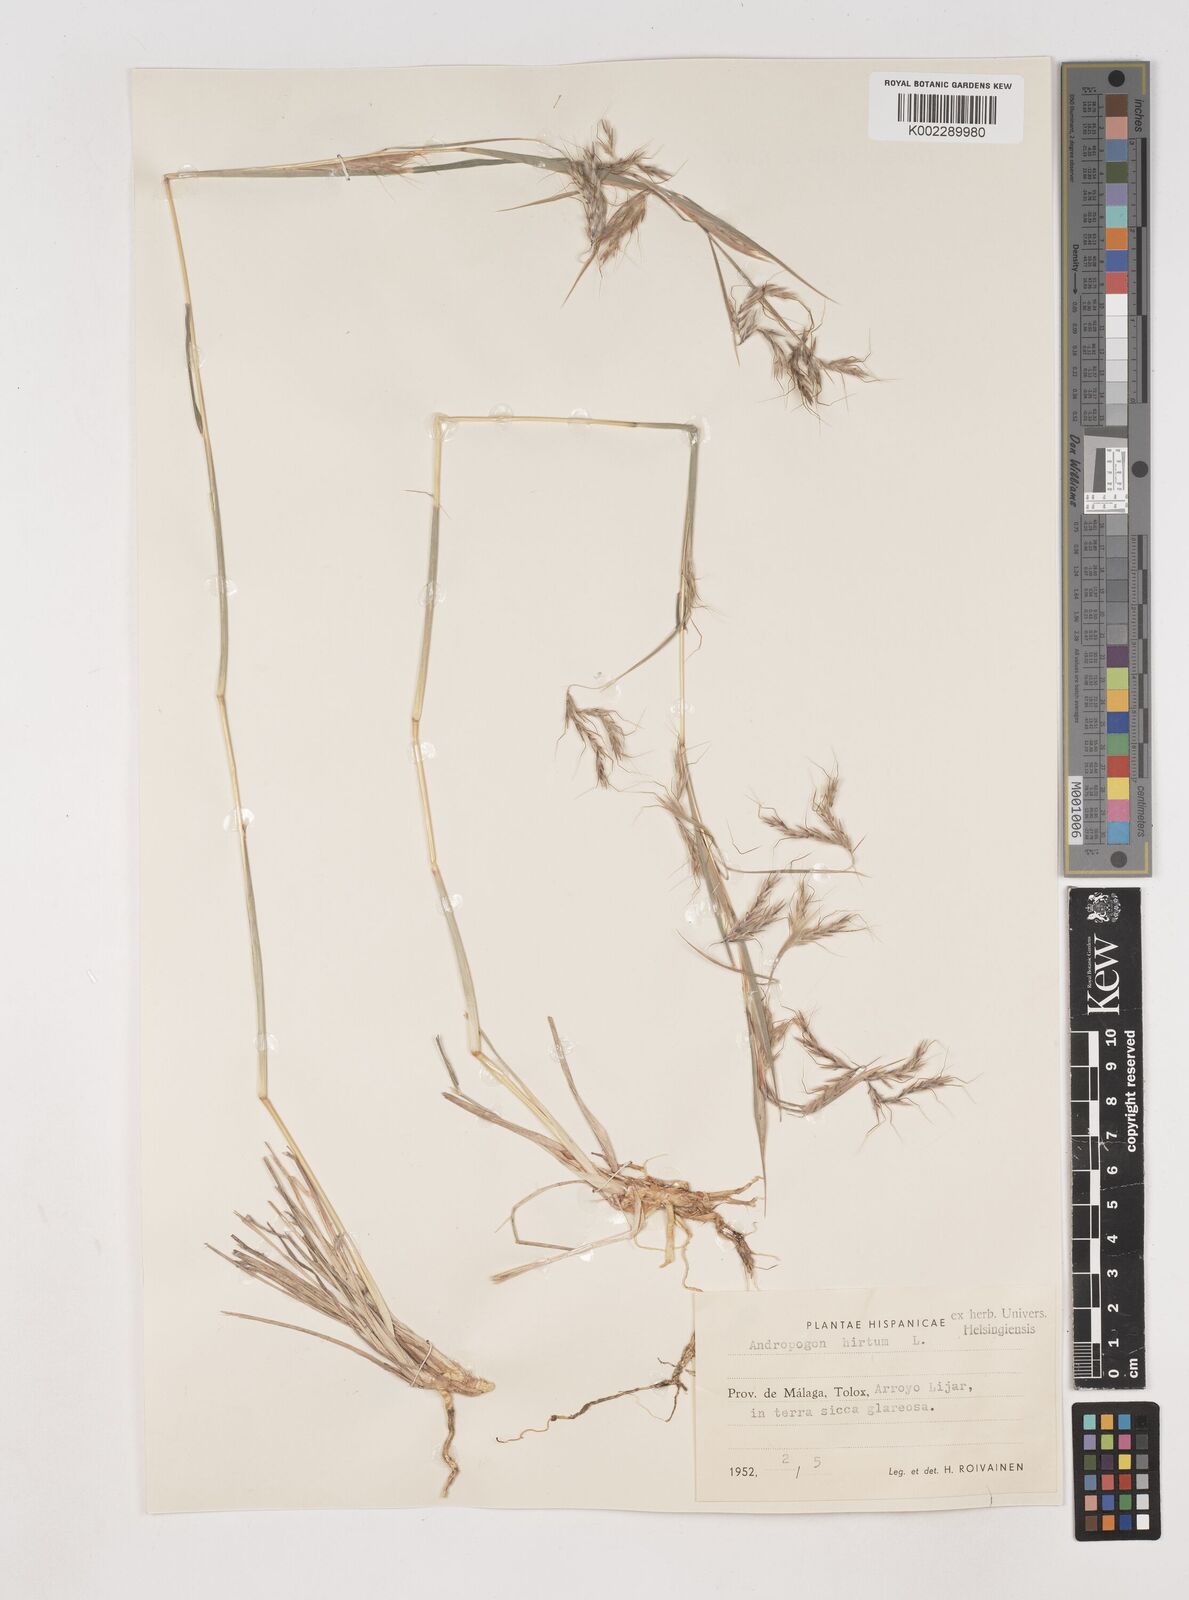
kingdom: Plantae
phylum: Tracheophyta
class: Liliopsida
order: Poales
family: Poaceae
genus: Hyparrhenia
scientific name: Hyparrhenia hirta
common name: Thatching grass
